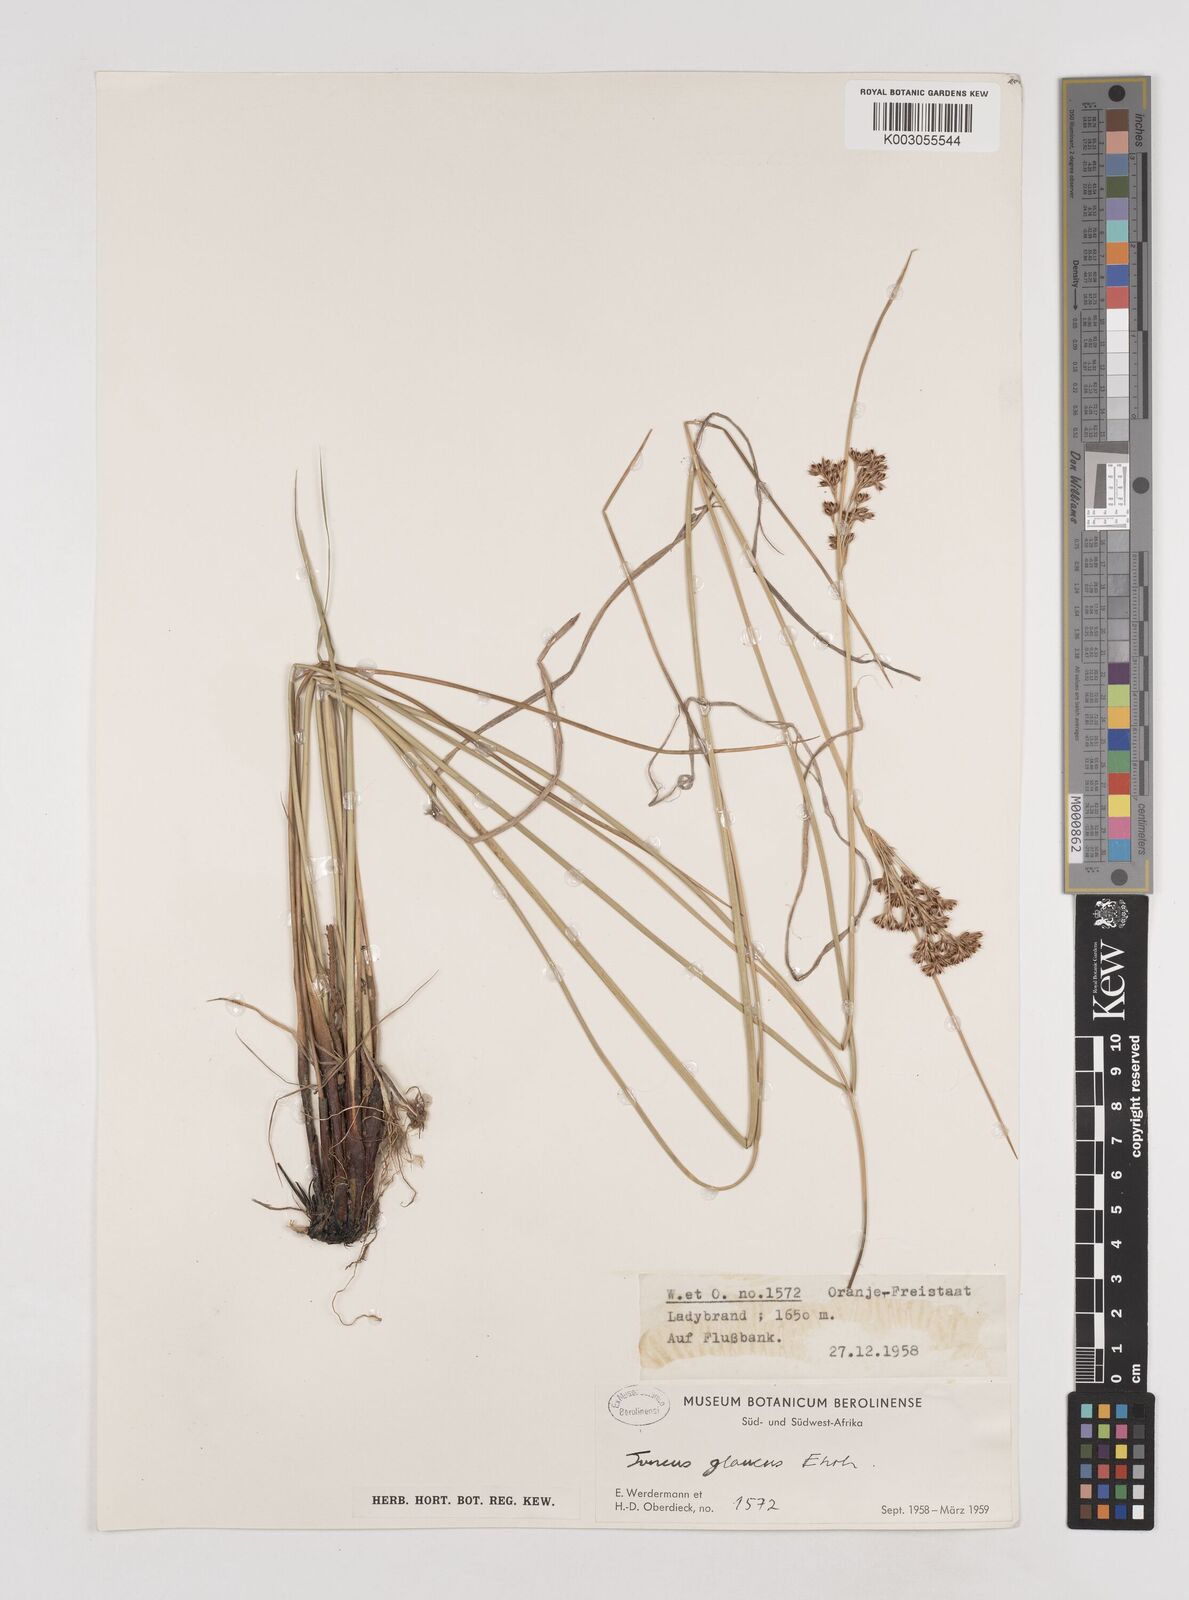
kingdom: Plantae
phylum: Tracheophyta
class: Liliopsida
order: Poales
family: Juncaceae
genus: Juncus
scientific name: Juncus inflexus
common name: Hard rush
